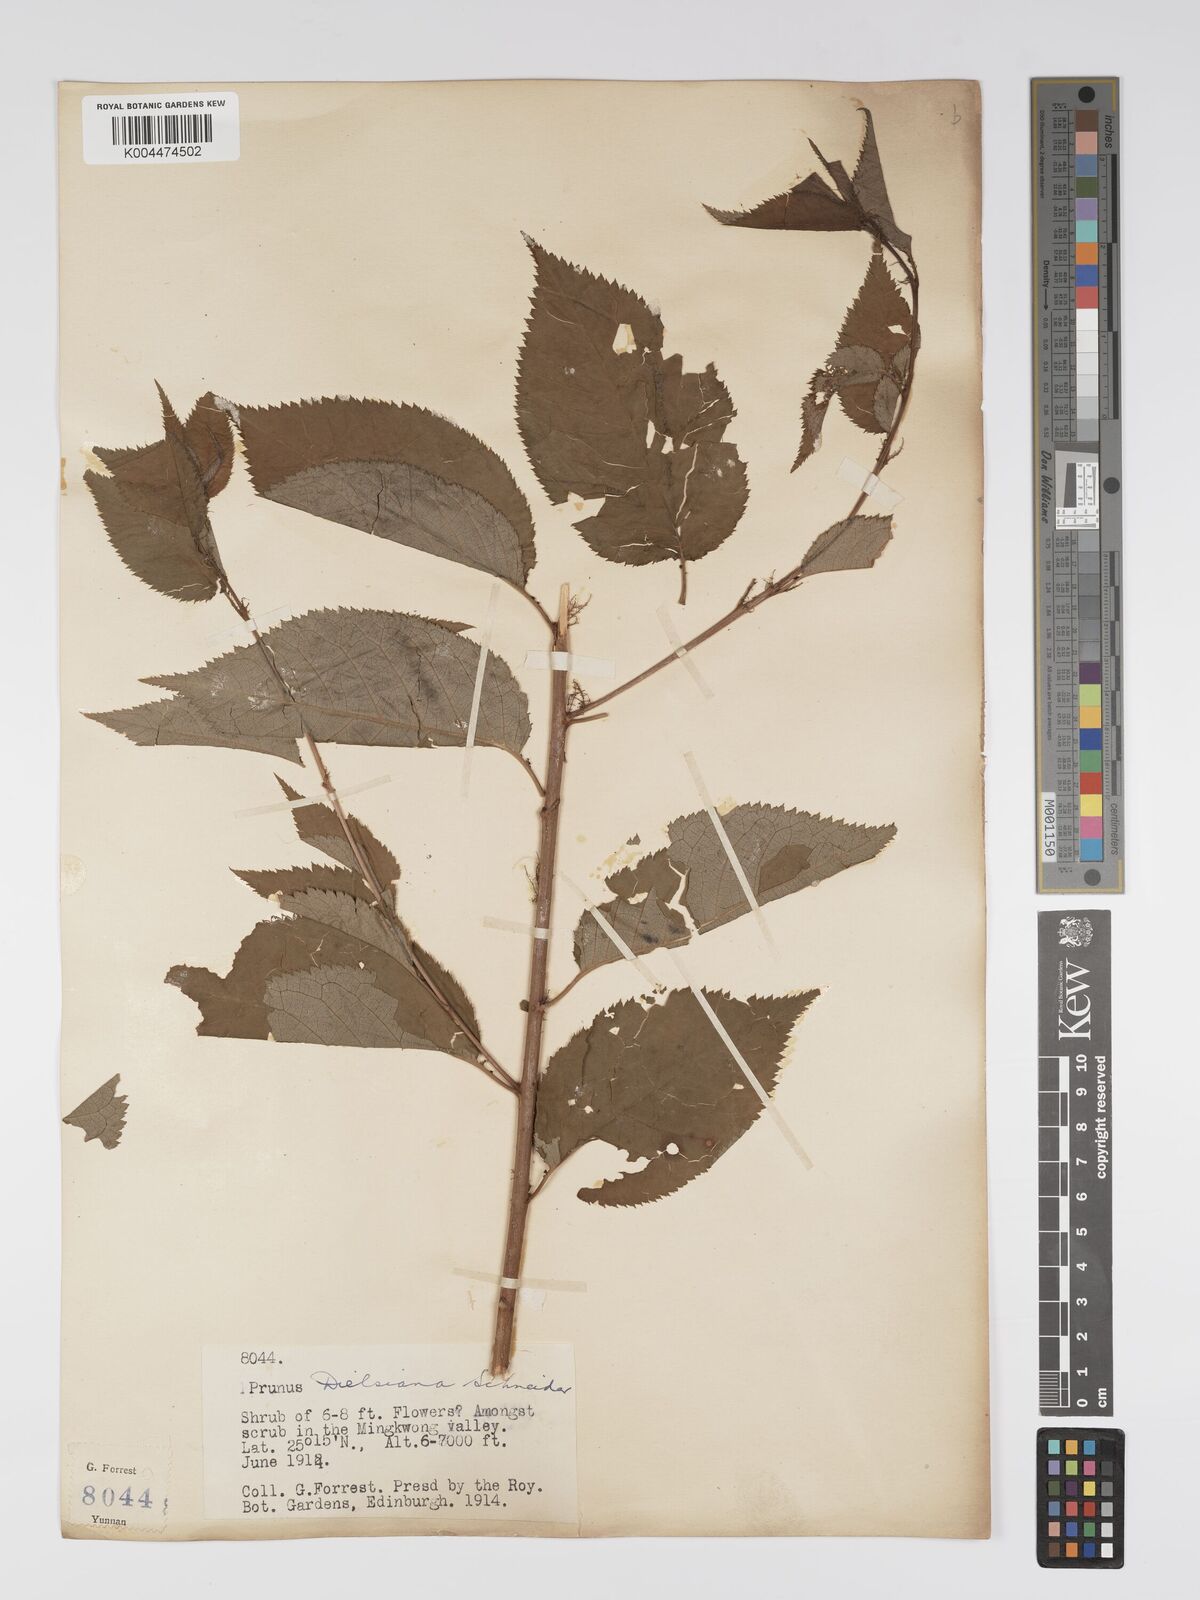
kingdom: Plantae
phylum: Tracheophyta
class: Magnoliopsida
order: Rosales
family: Rosaceae
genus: Prunus
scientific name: Prunus
